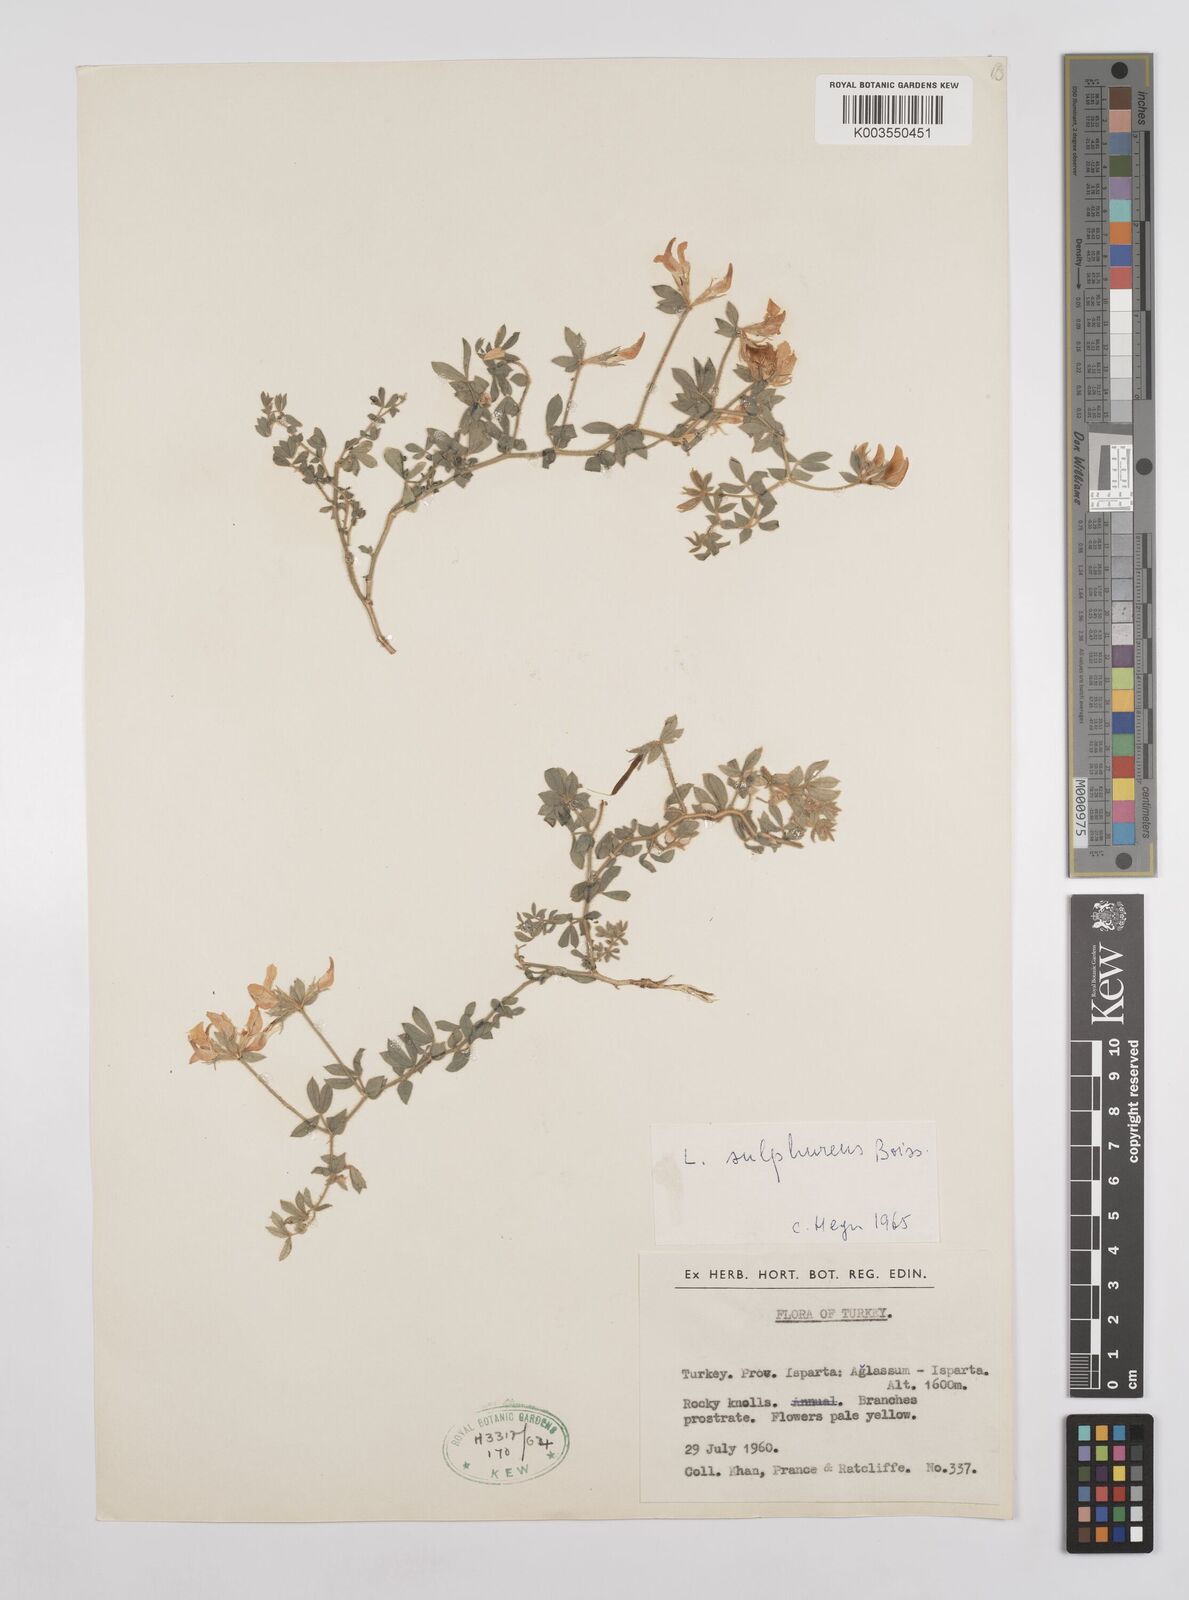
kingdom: Plantae
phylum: Tracheophyta
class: Magnoliopsida
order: Fabales
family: Fabaceae
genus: Lotus
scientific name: Lotus aegaeus
